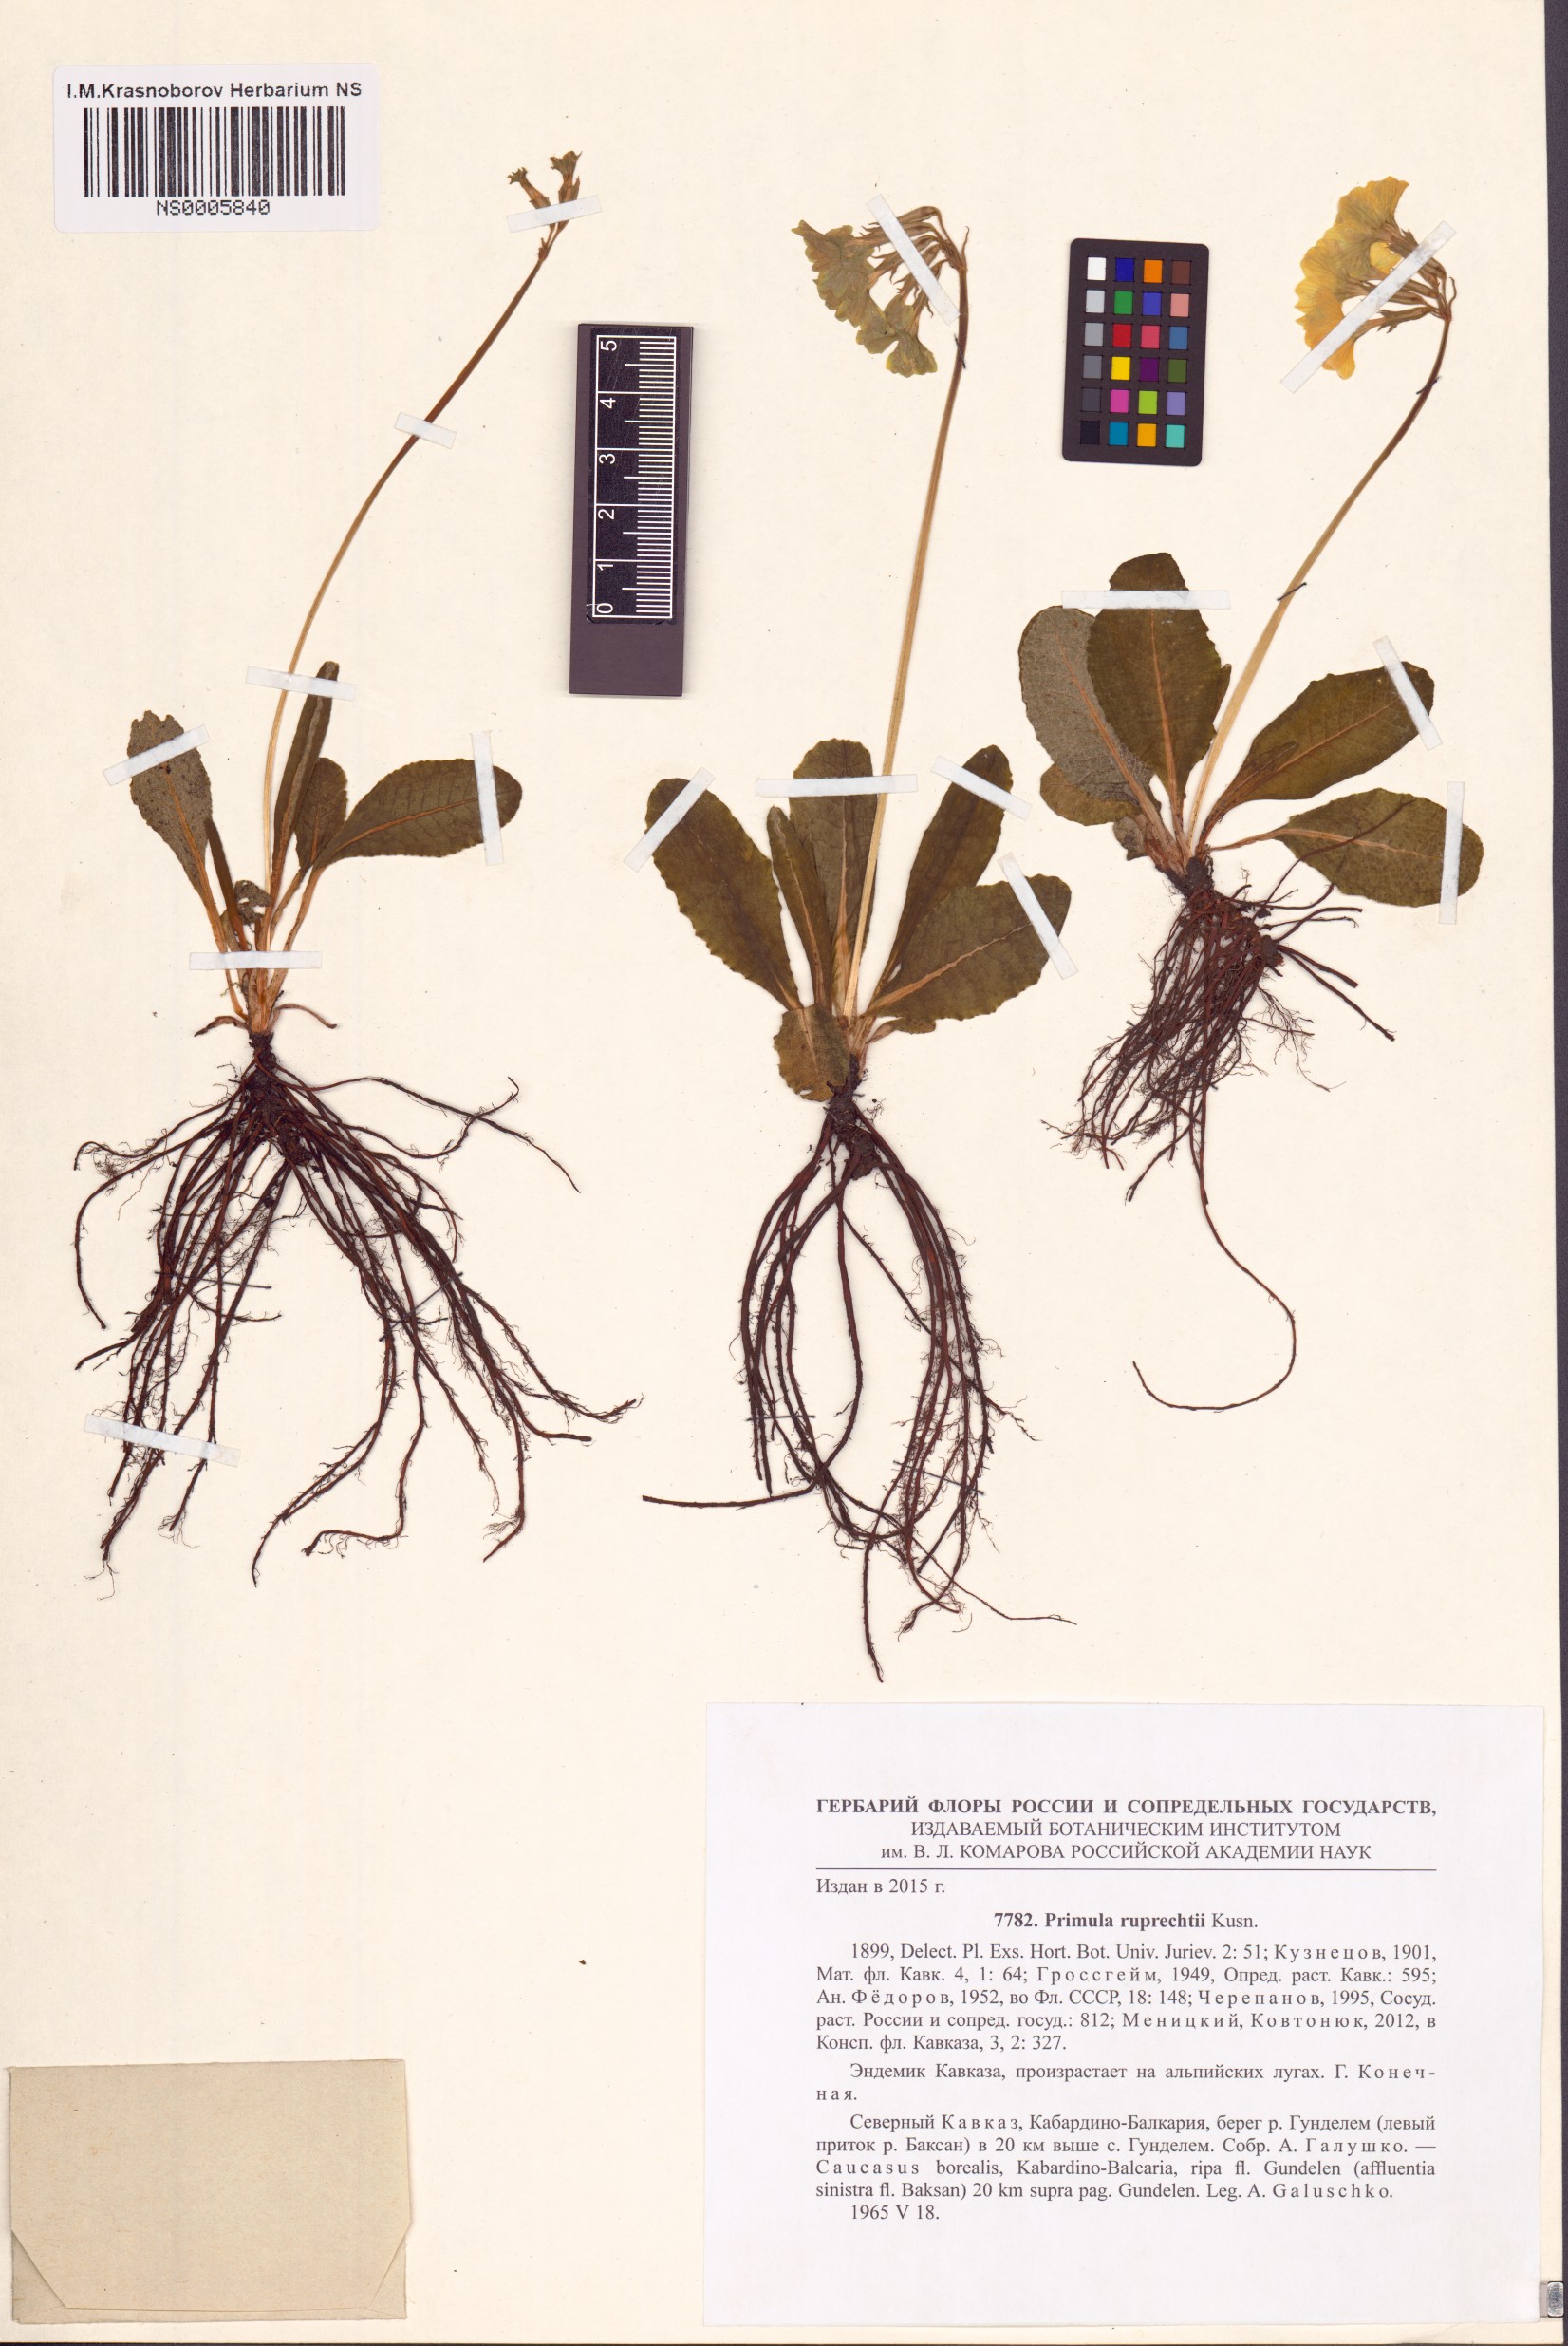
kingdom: Plantae
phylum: Tracheophyta
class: Magnoliopsida
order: Ericales
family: Primulaceae
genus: Primula
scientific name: Primula ruprechtii
